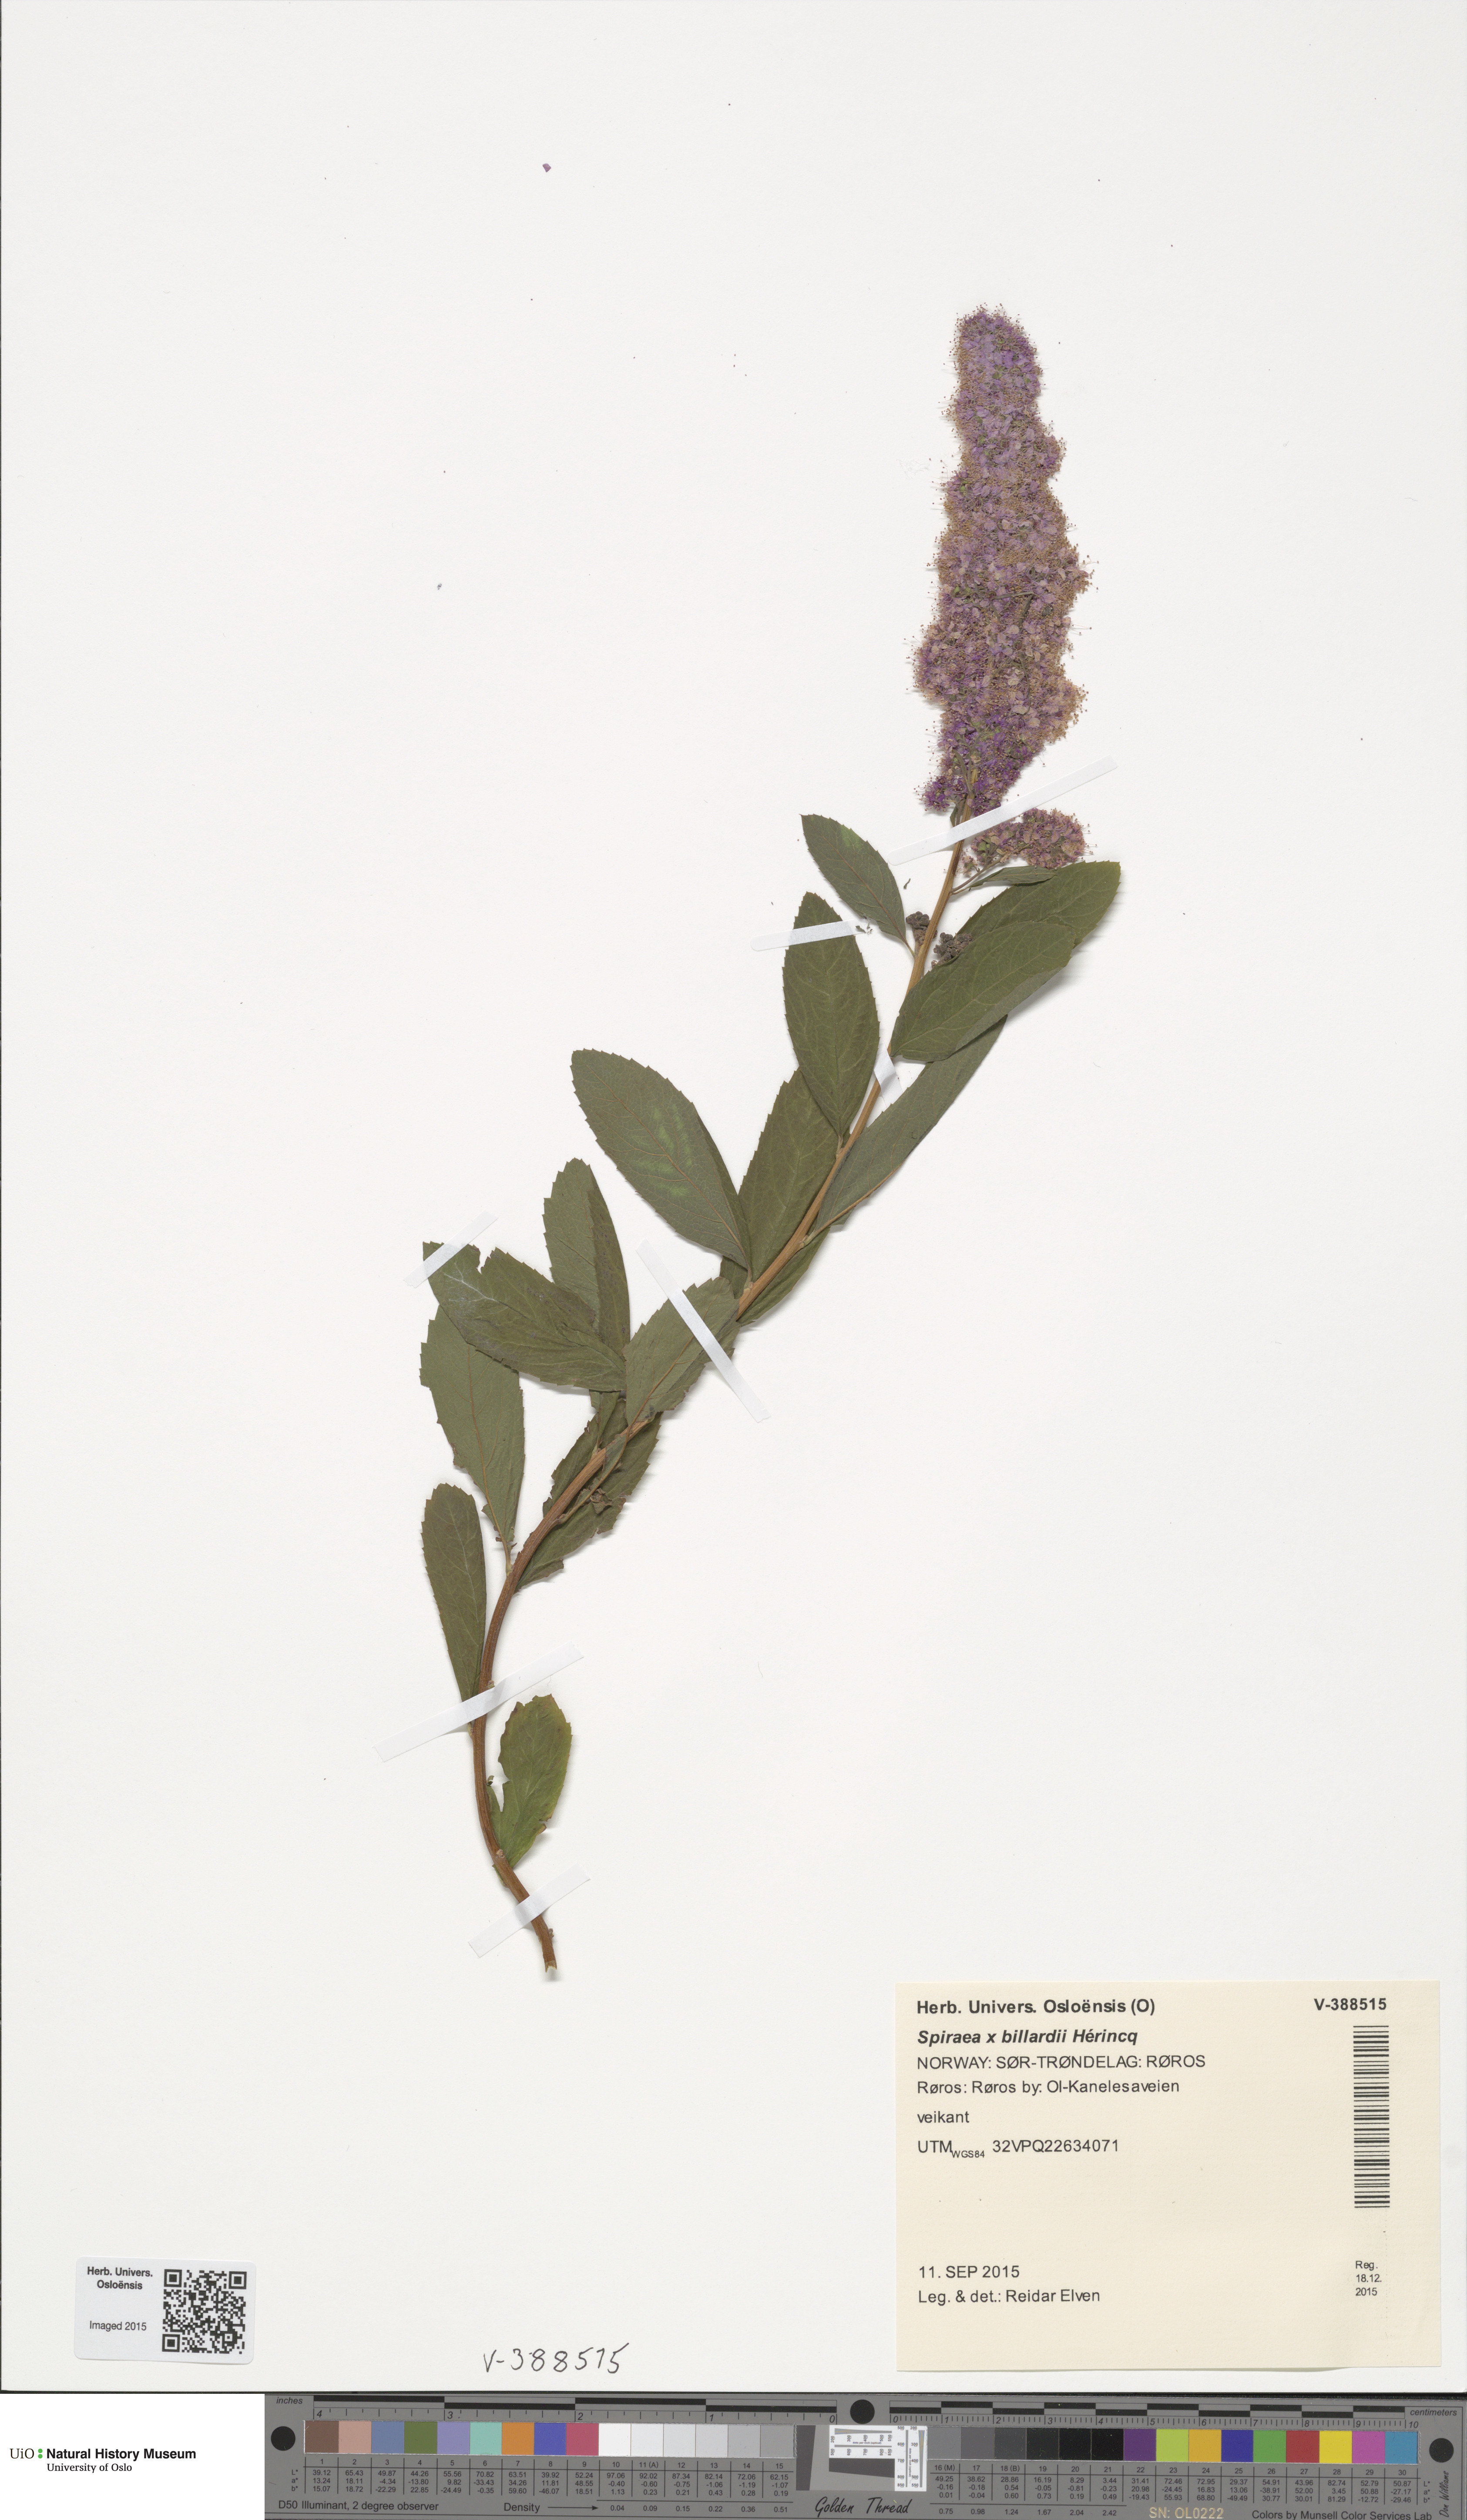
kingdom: Plantae
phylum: Tracheophyta
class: Magnoliopsida
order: Rosales
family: Rosaceae
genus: Spiraea
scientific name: Spiraea billardii
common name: Billard's bridewort
